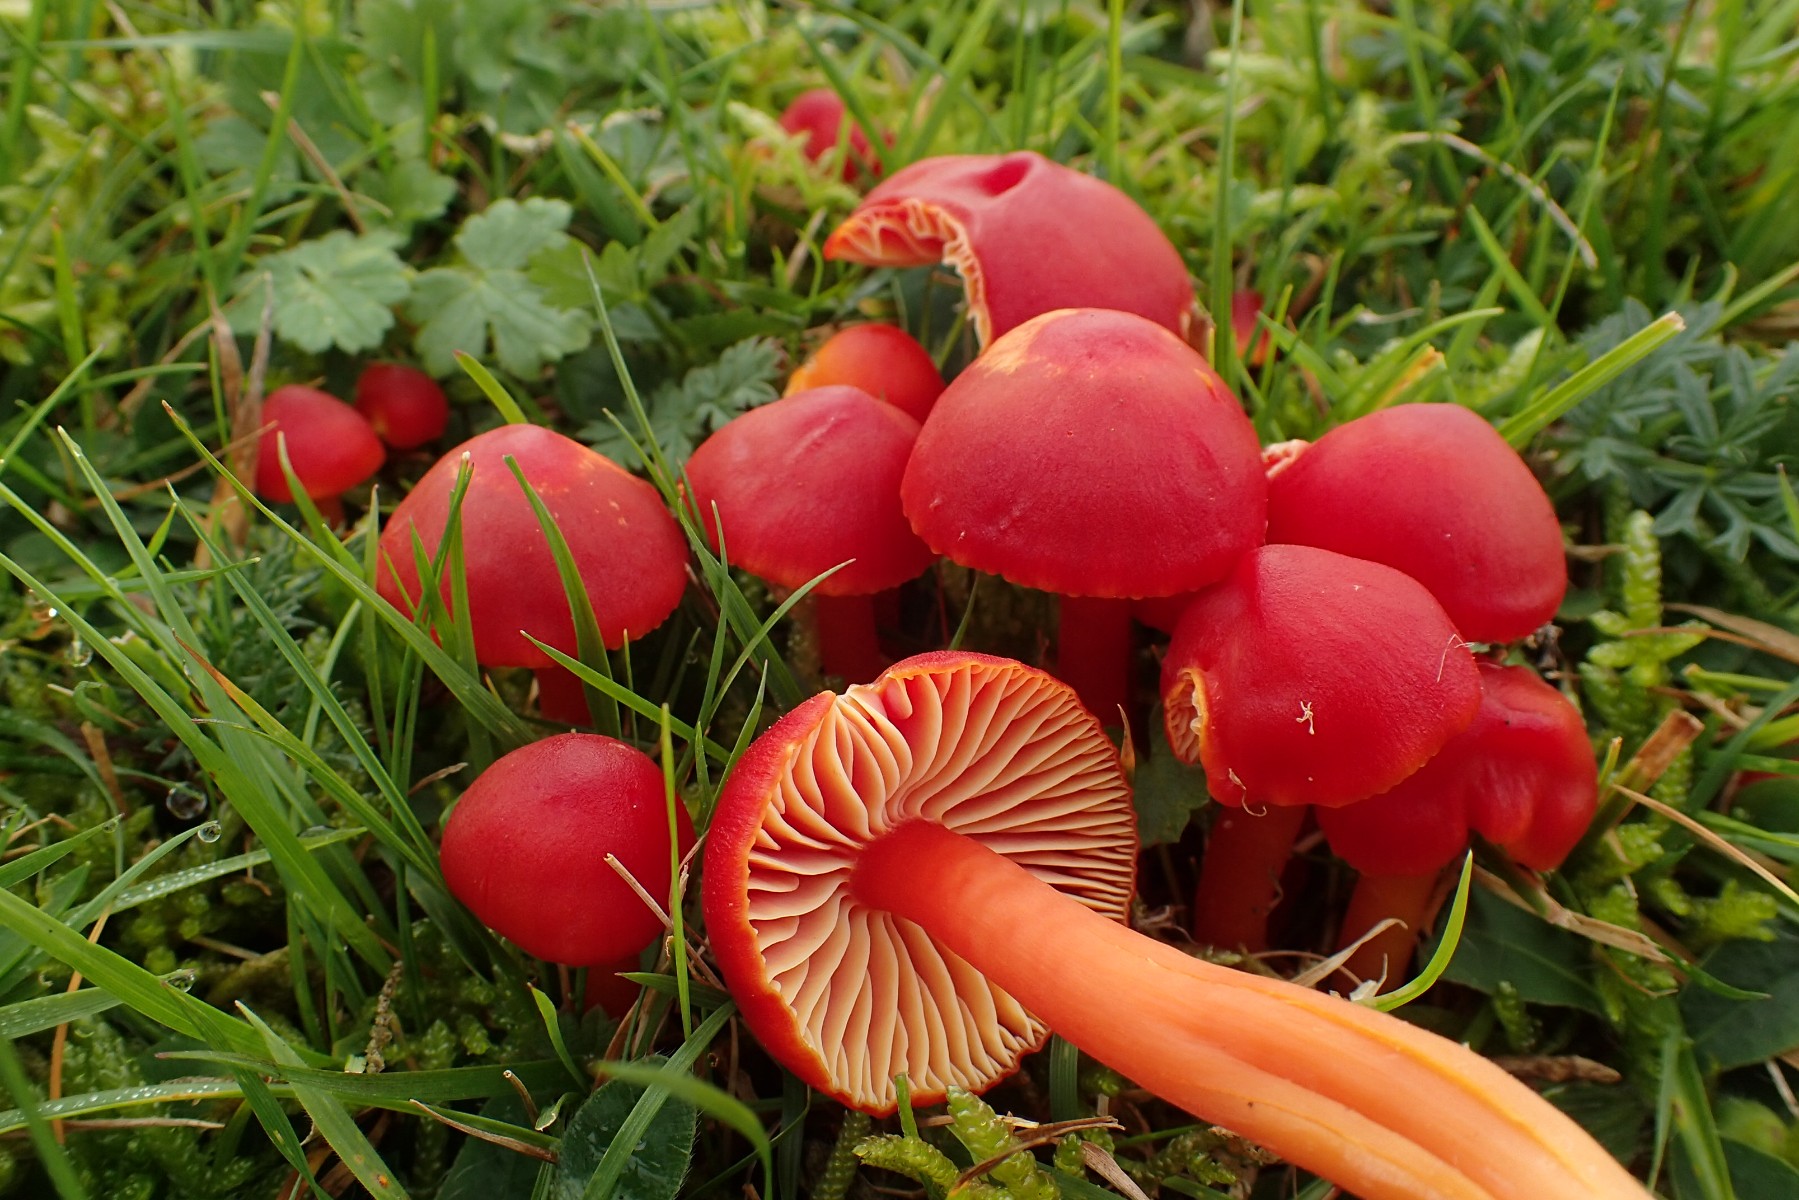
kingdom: Fungi
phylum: Basidiomycota
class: Agaricomycetes
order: Agaricales
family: Hygrophoraceae
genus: Hygrocybe
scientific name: Hygrocybe coccinea
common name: cinnober-vokshat
